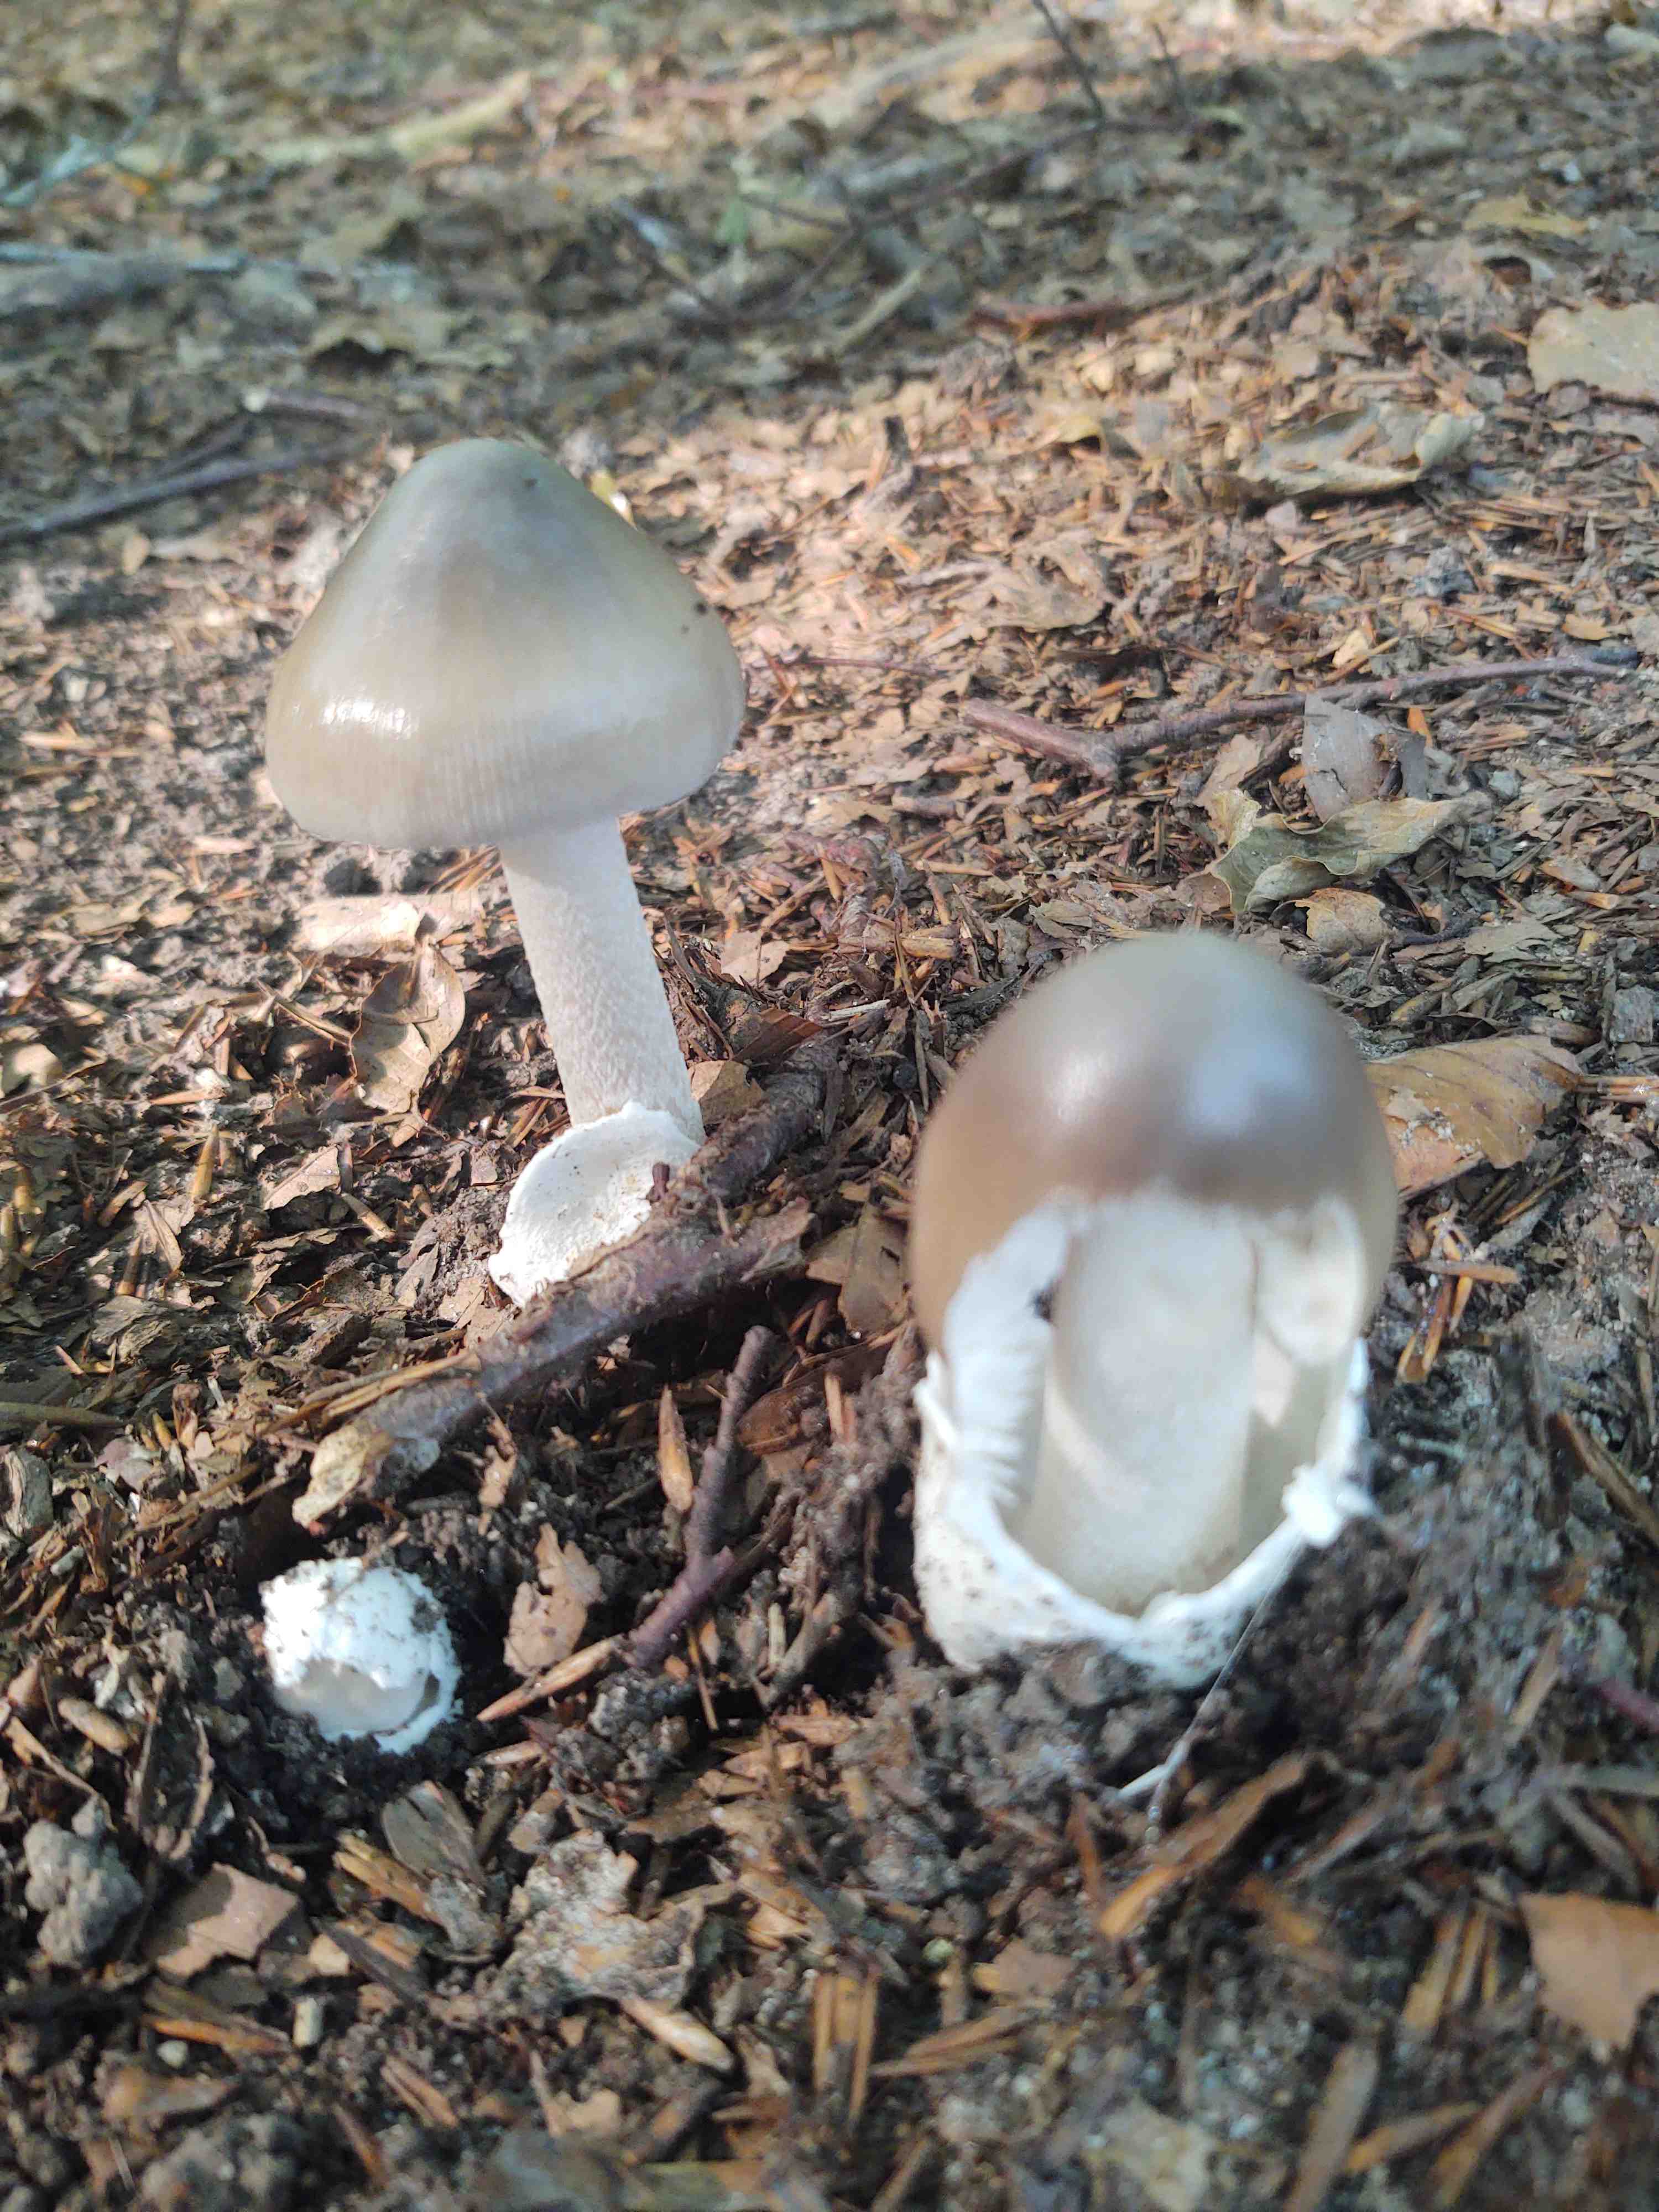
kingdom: Fungi
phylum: Basidiomycota
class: Agaricomycetes
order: Agaricales
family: Amanitaceae
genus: Amanita
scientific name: Amanita
